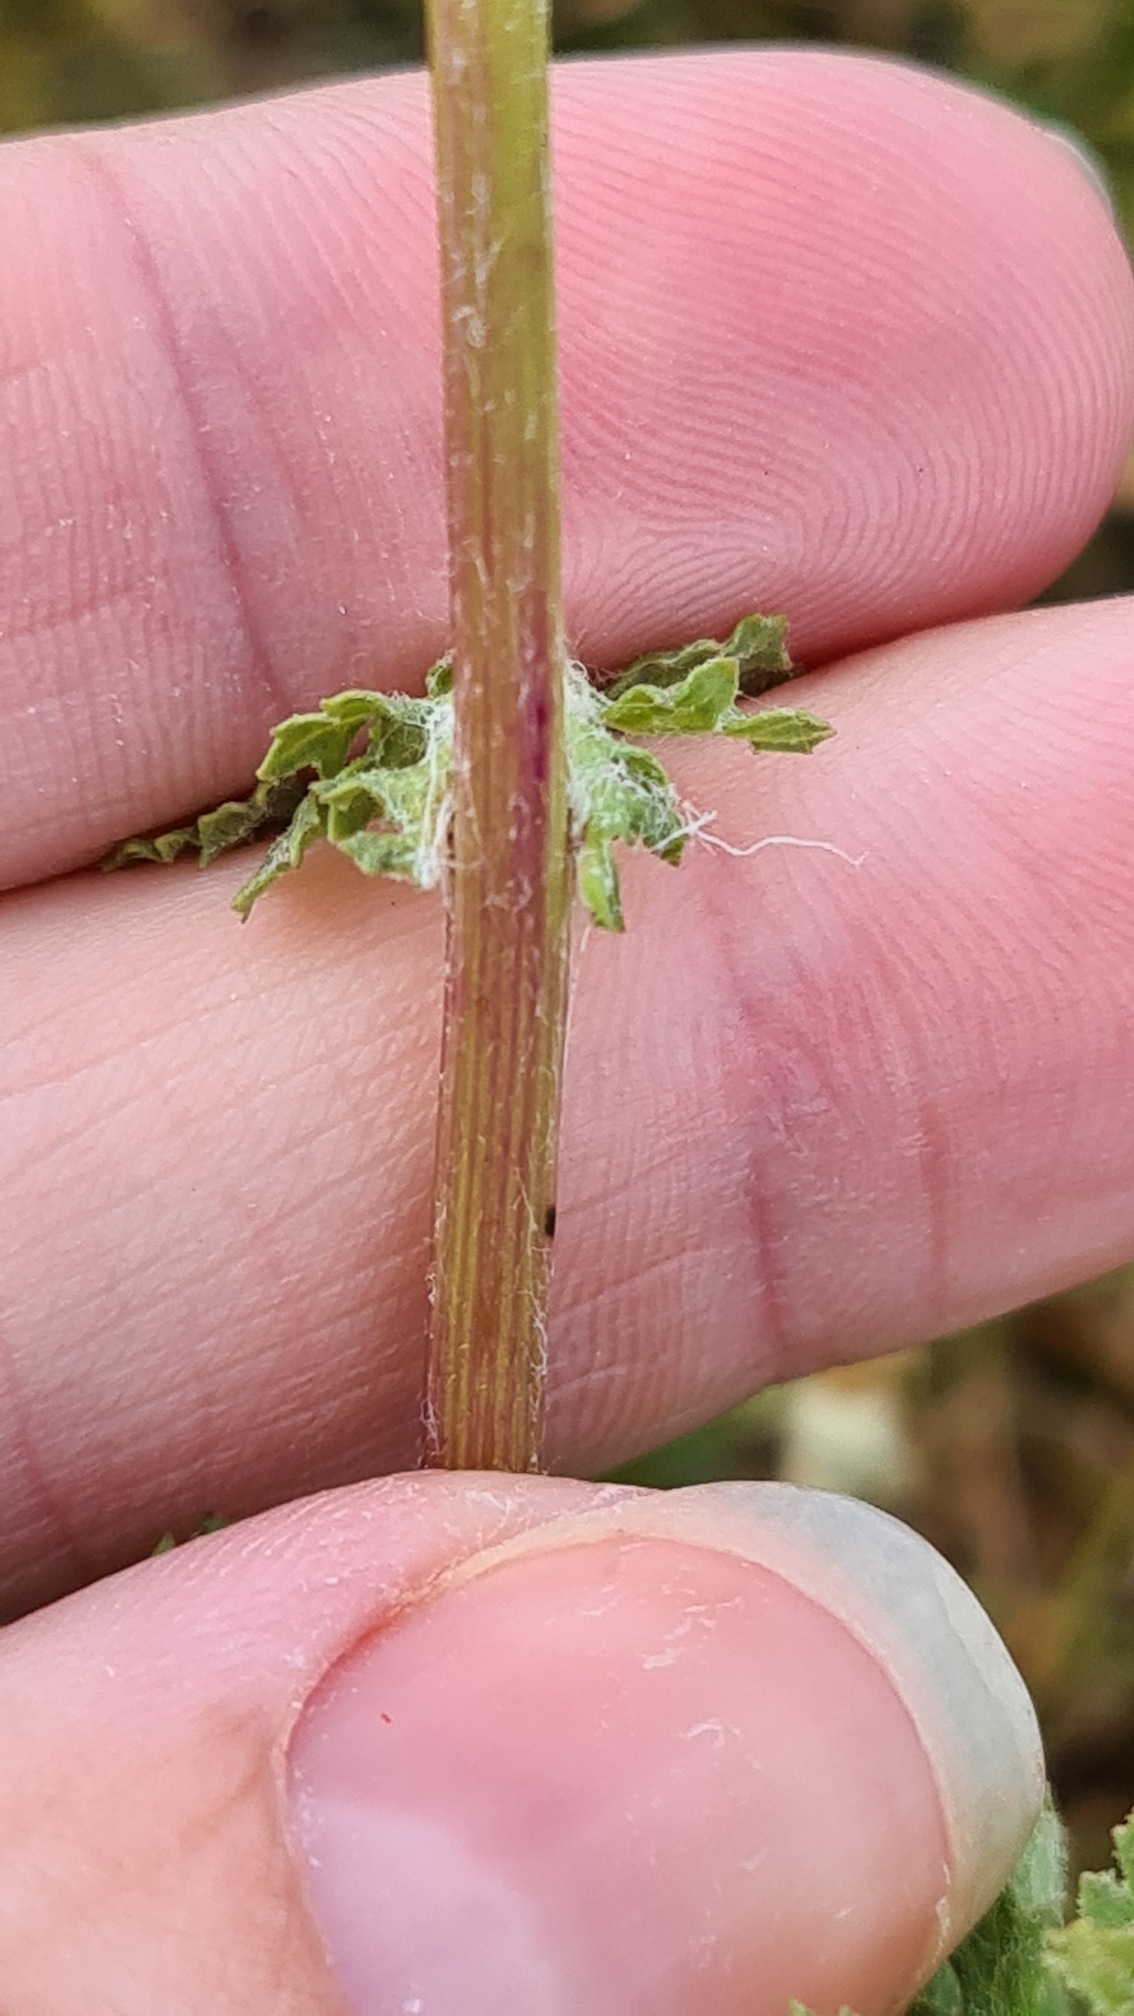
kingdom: Plantae
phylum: Tracheophyta
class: Magnoliopsida
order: Asterales
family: Asteraceae
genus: Jacobaea
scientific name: Jacobaea vulgaris
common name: Eng-brandbæger
